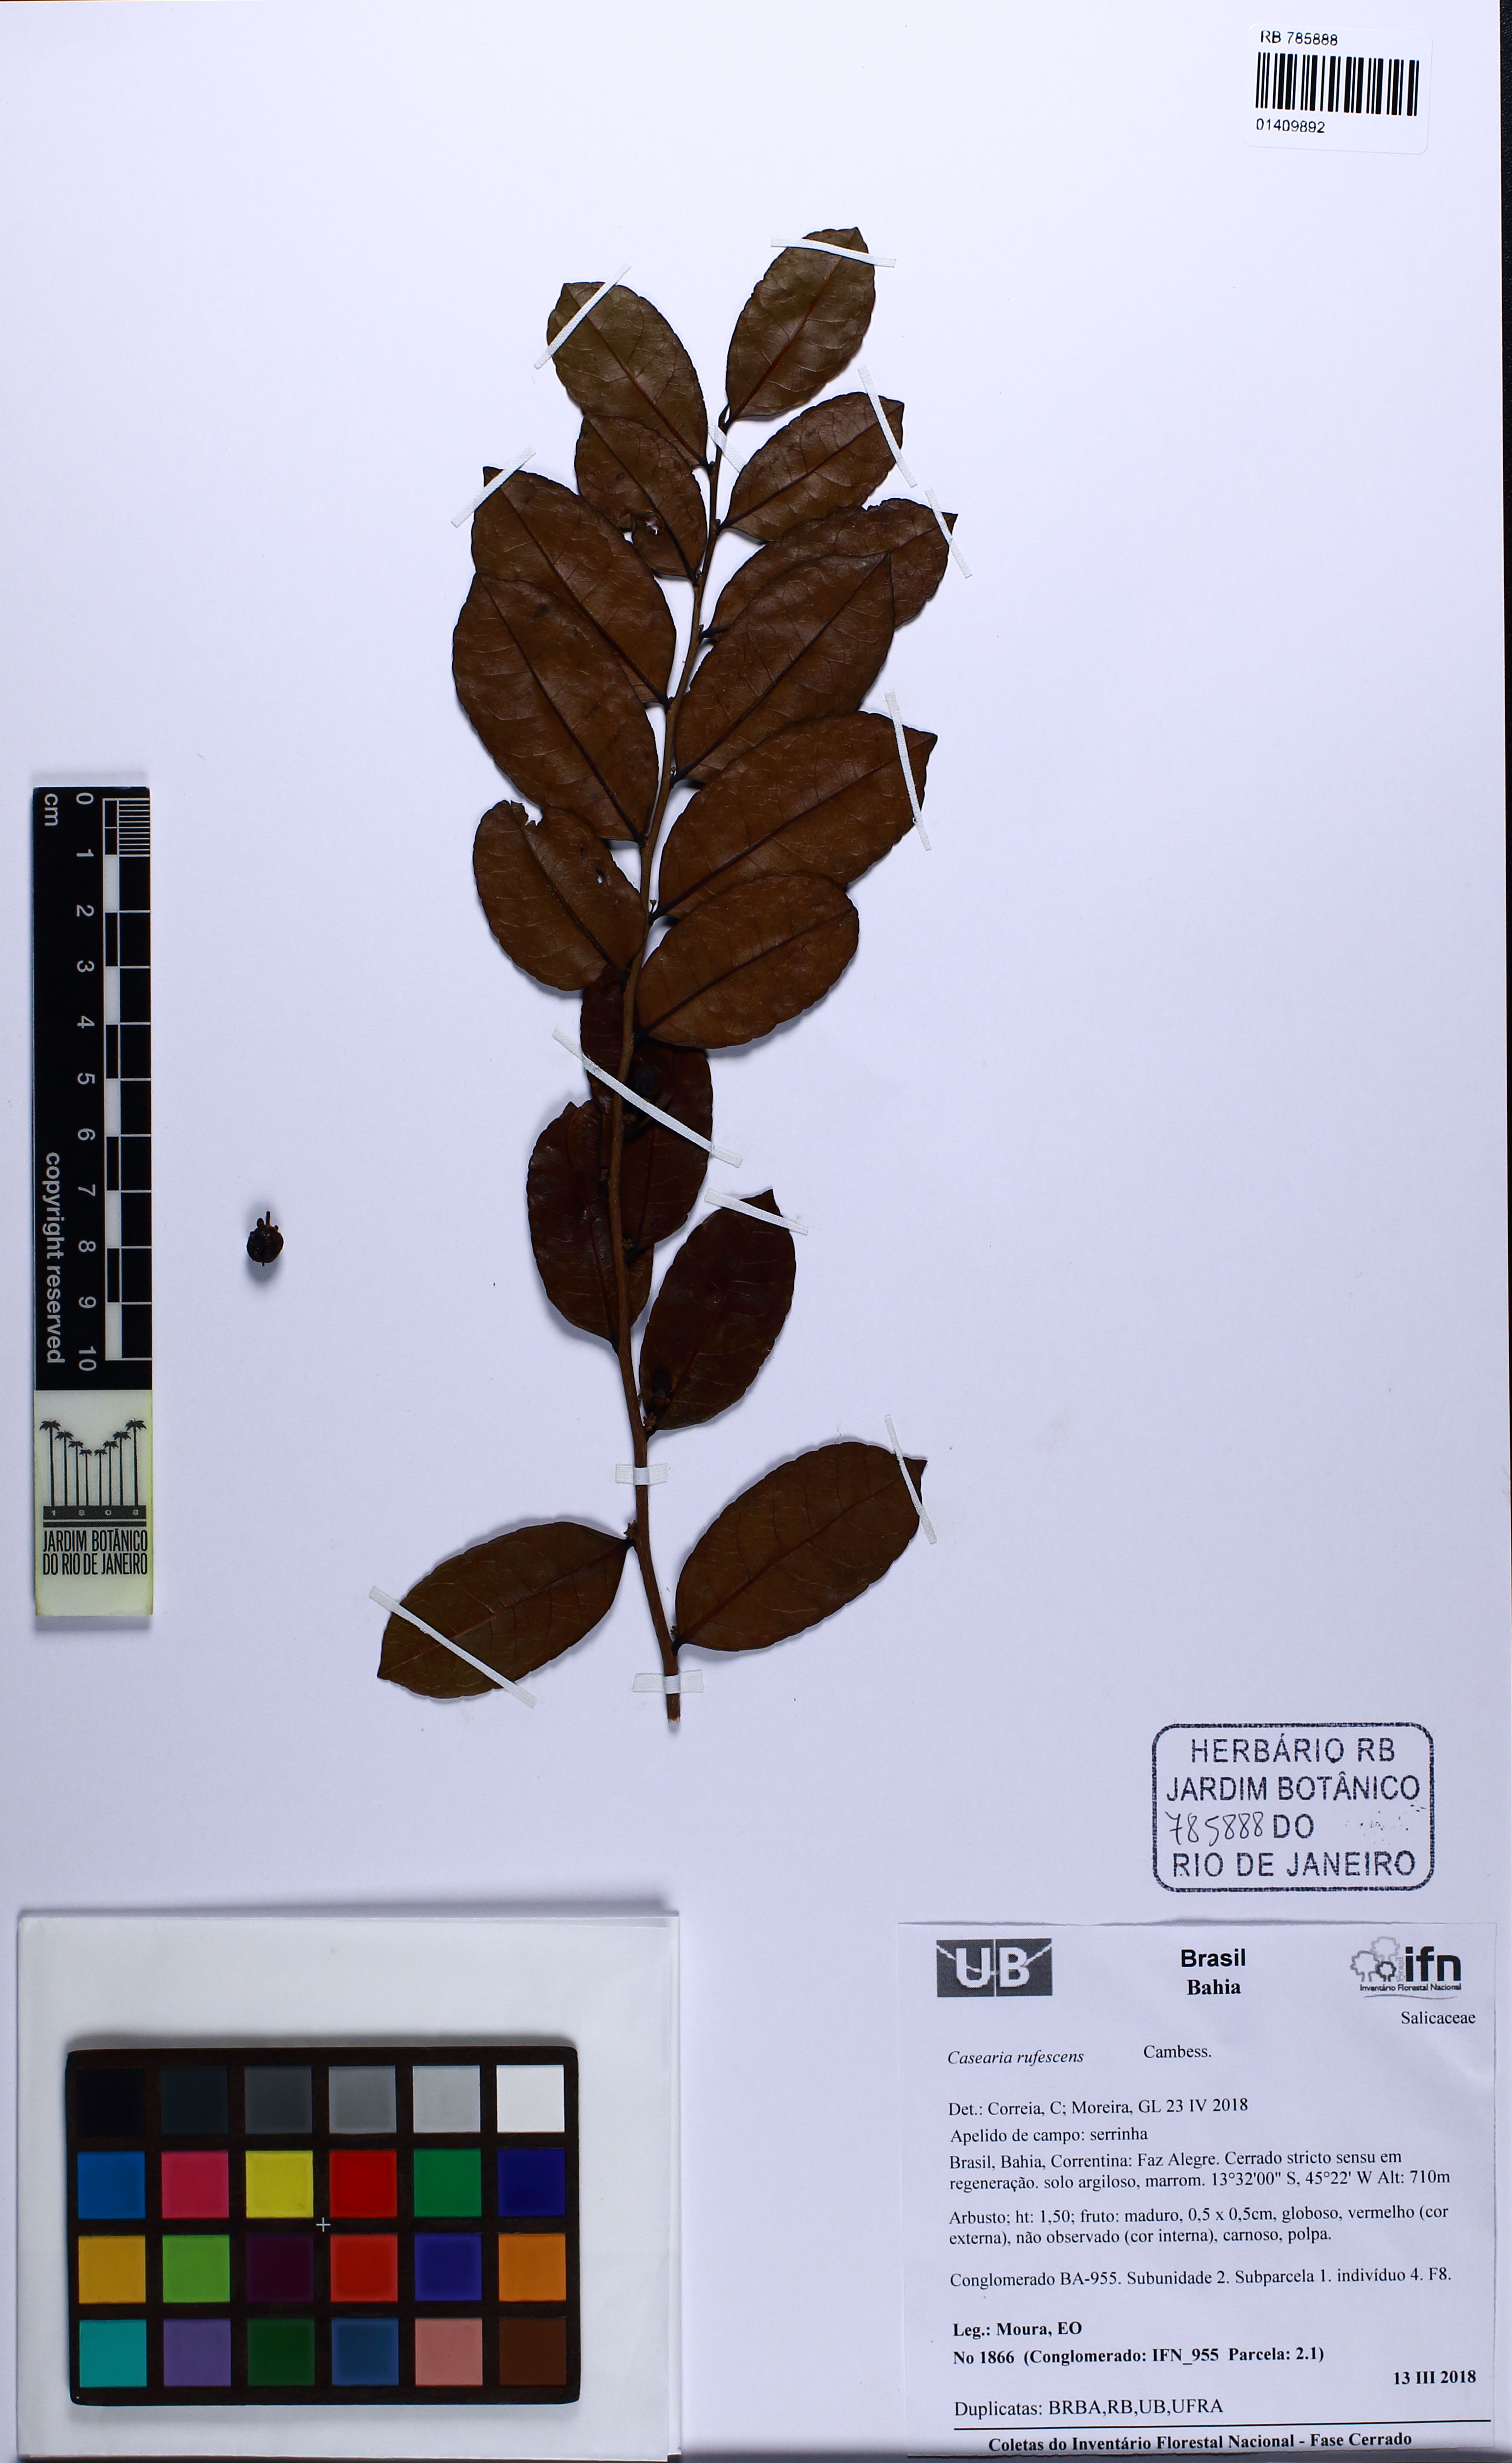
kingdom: Plantae
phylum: Tracheophyta
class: Magnoliopsida
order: Malpighiales
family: Salicaceae
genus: Casearia
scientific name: Casearia rufescens
